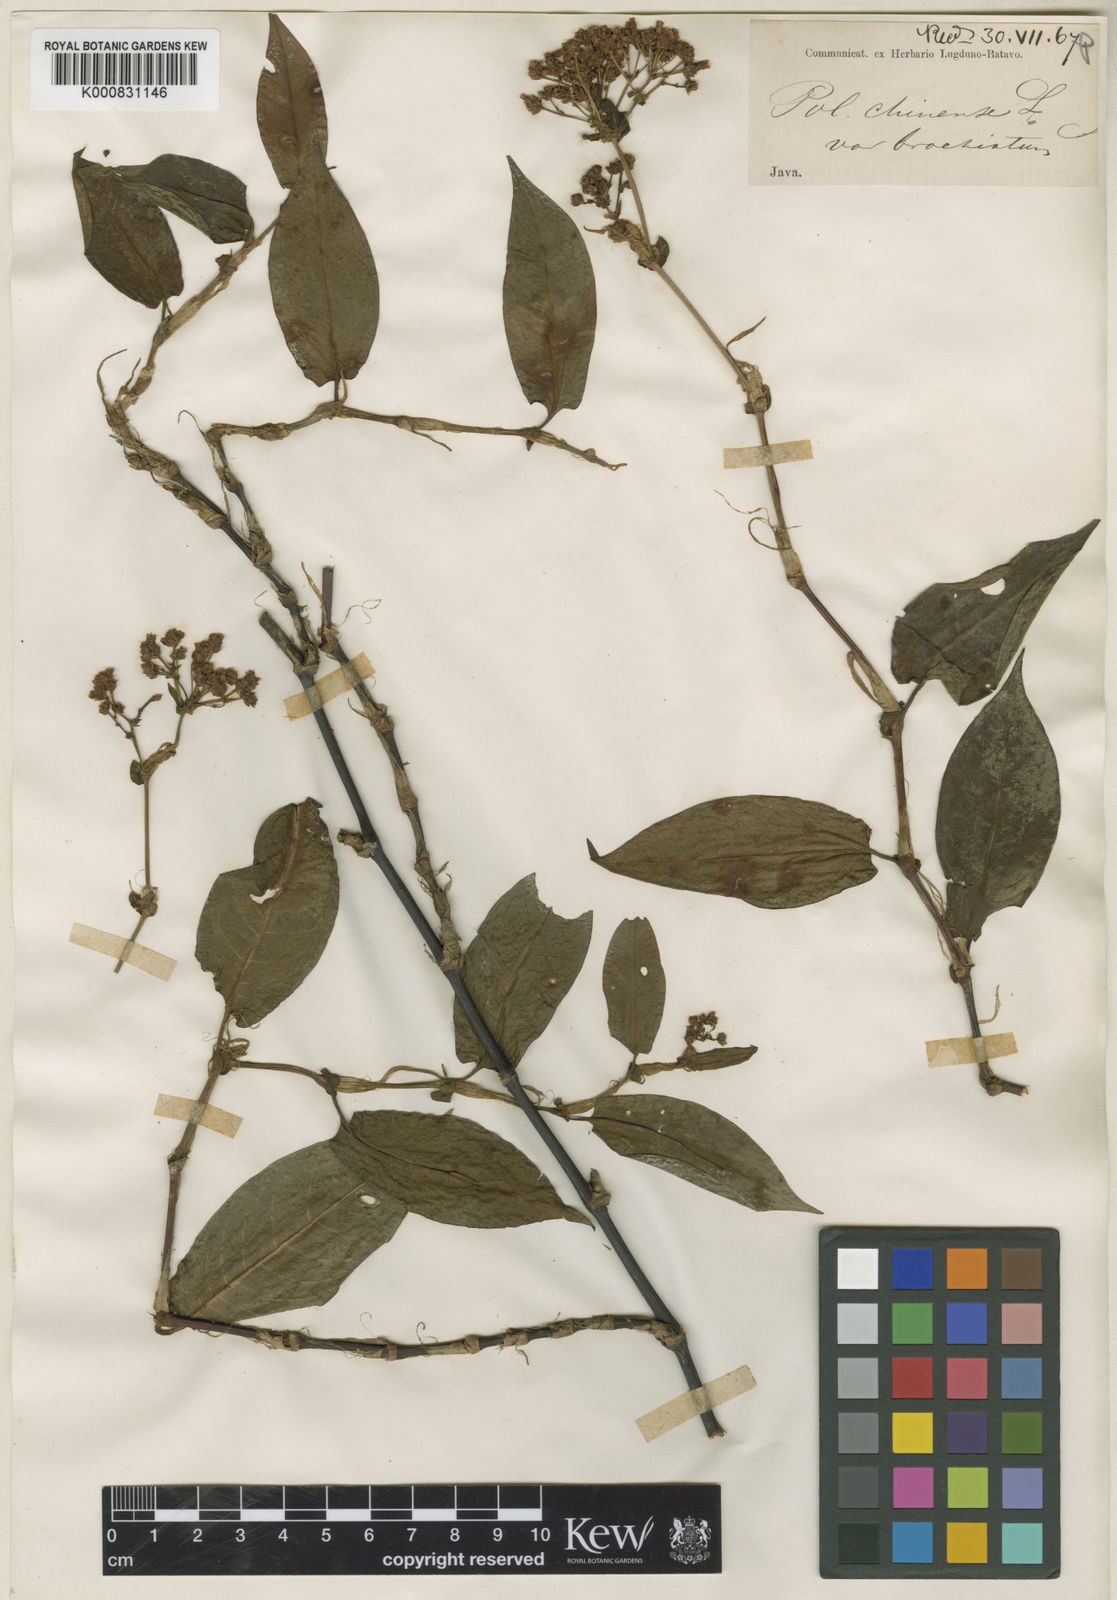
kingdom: Plantae
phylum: Tracheophyta
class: Magnoliopsida
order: Caryophyllales
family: Polygonaceae
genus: Persicaria
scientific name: Persicaria chinensis
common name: Chinese knotweed
